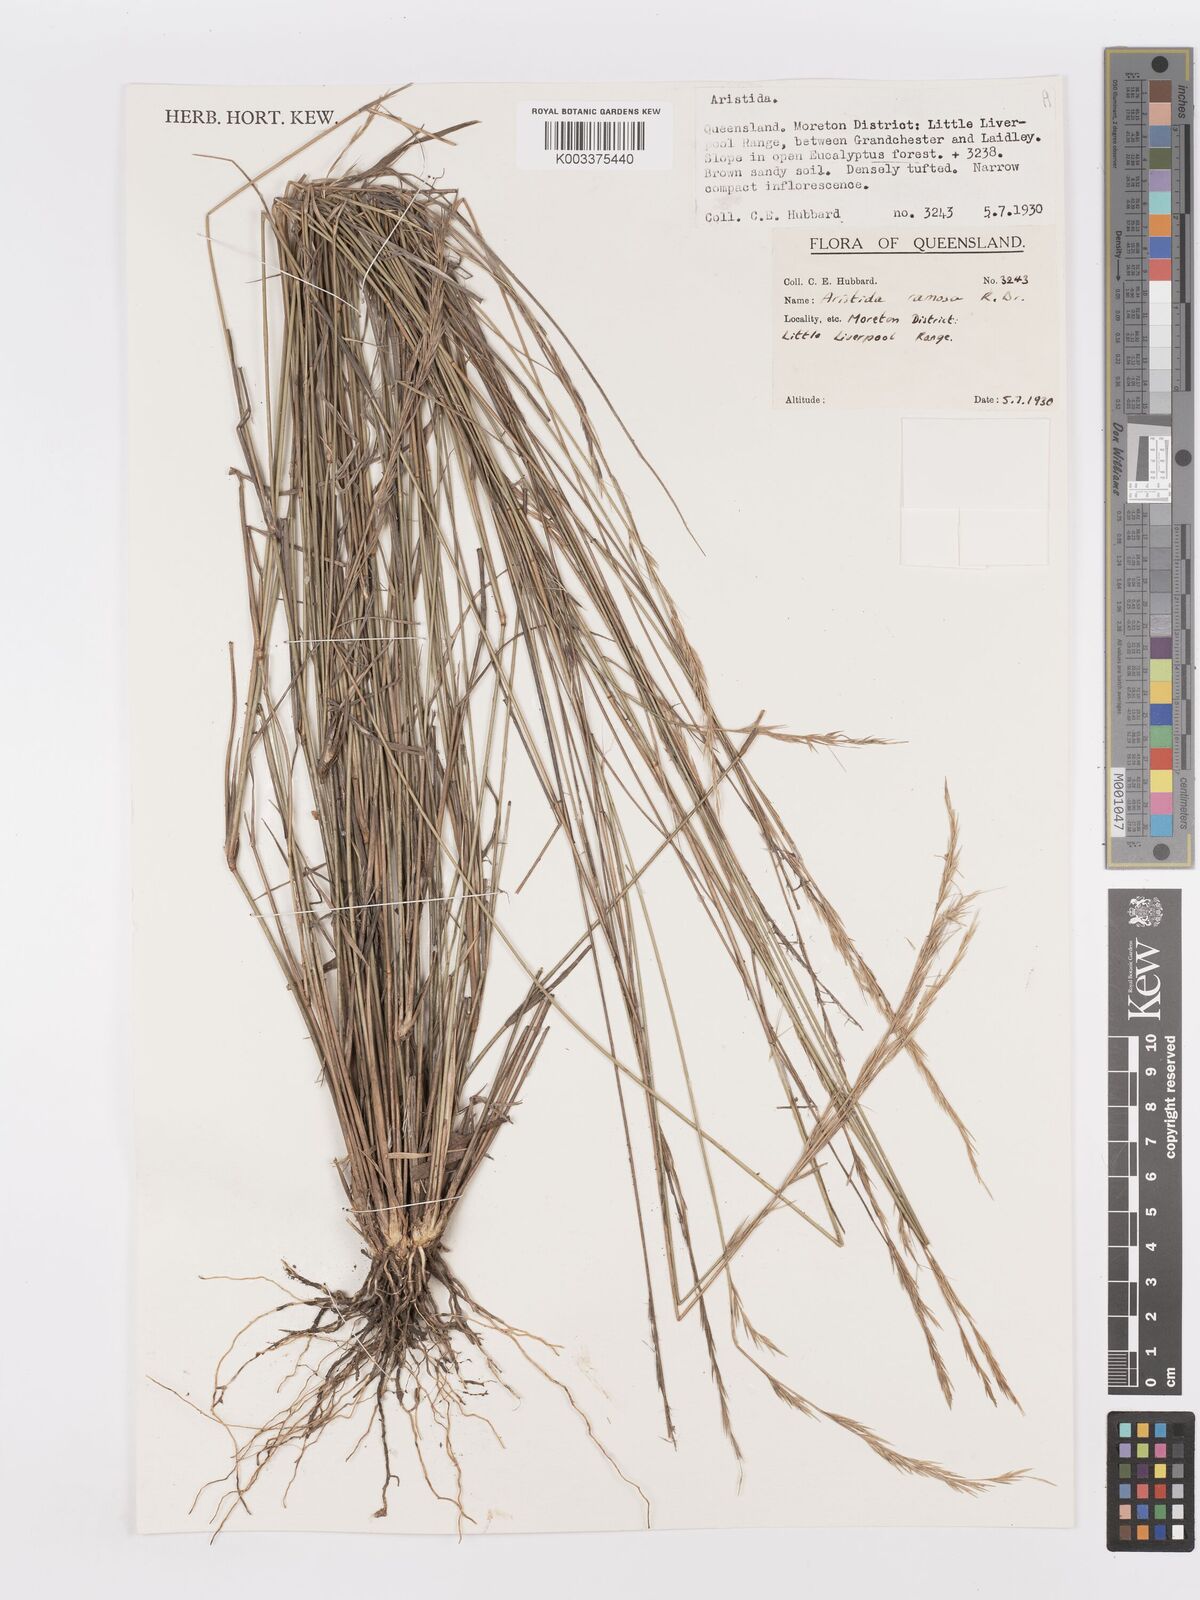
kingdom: Plantae
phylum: Tracheophyta
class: Liliopsida
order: Poales
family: Poaceae
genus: Aristida
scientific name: Aristida ramosa
